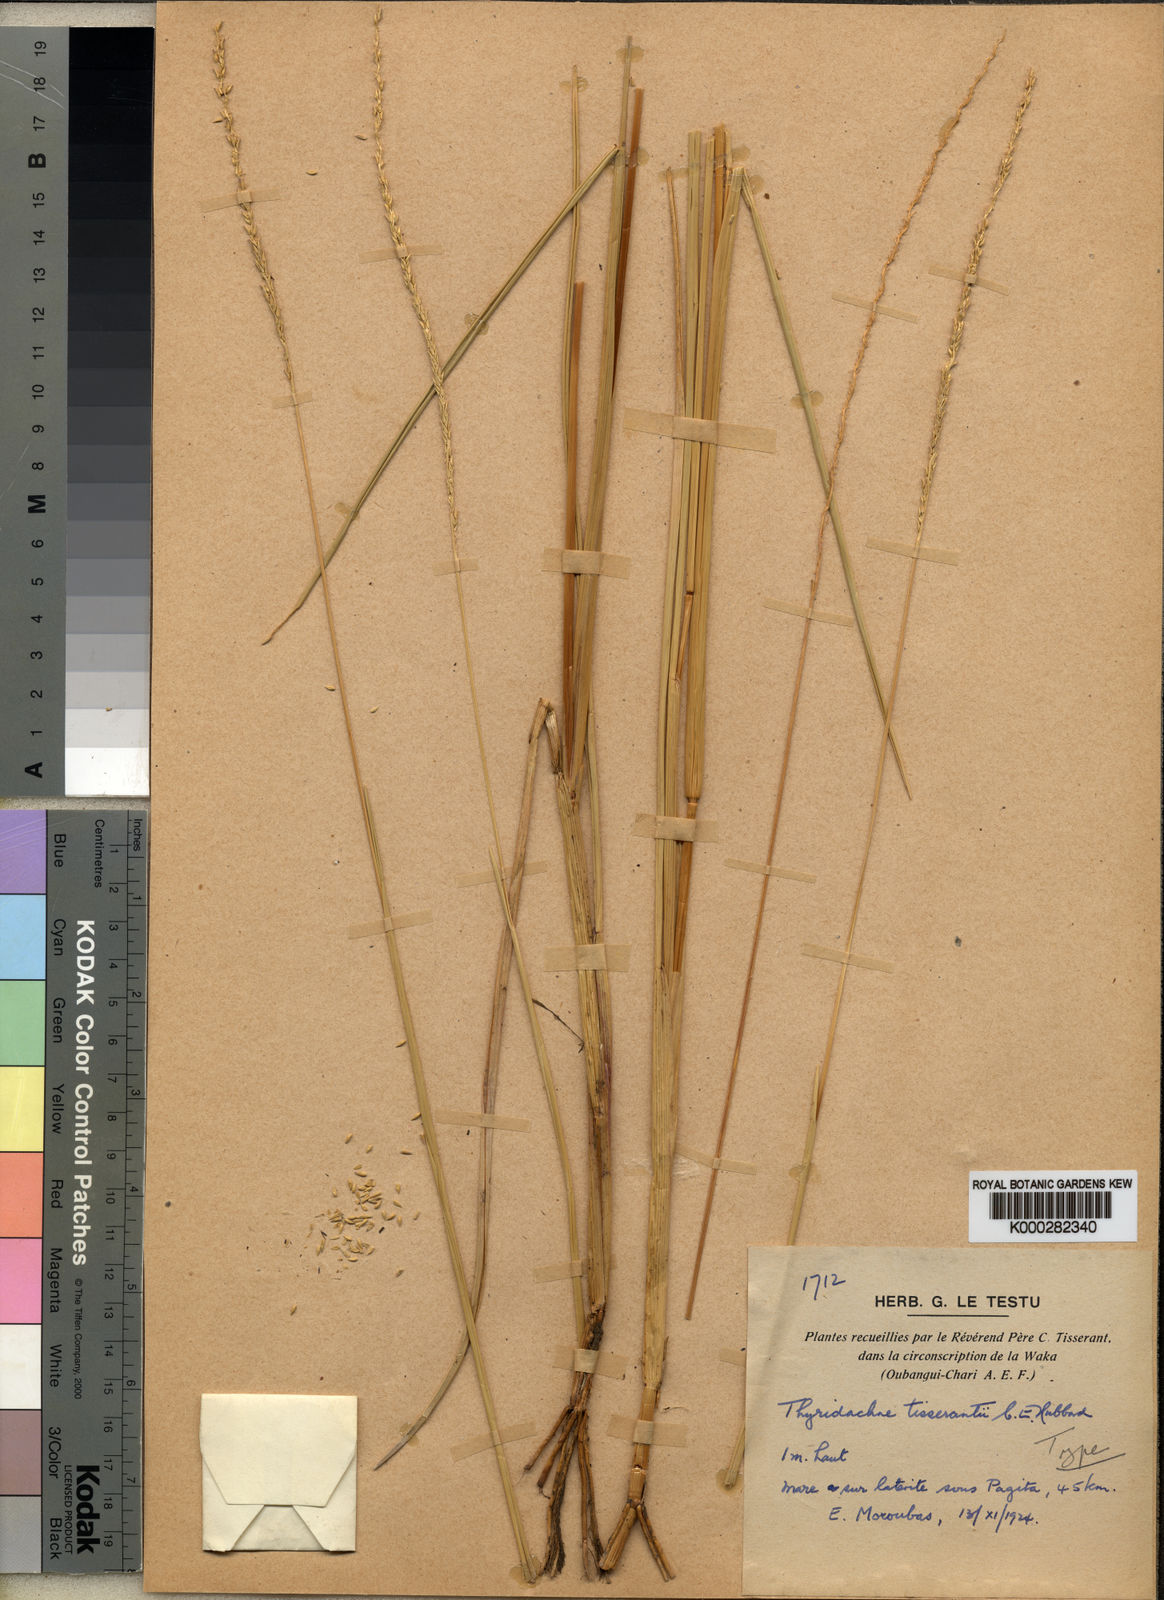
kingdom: Plantae
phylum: Tracheophyta
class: Liliopsida
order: Poales
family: Poaceae
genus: Thyridachne
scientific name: Thyridachne tisserantii
